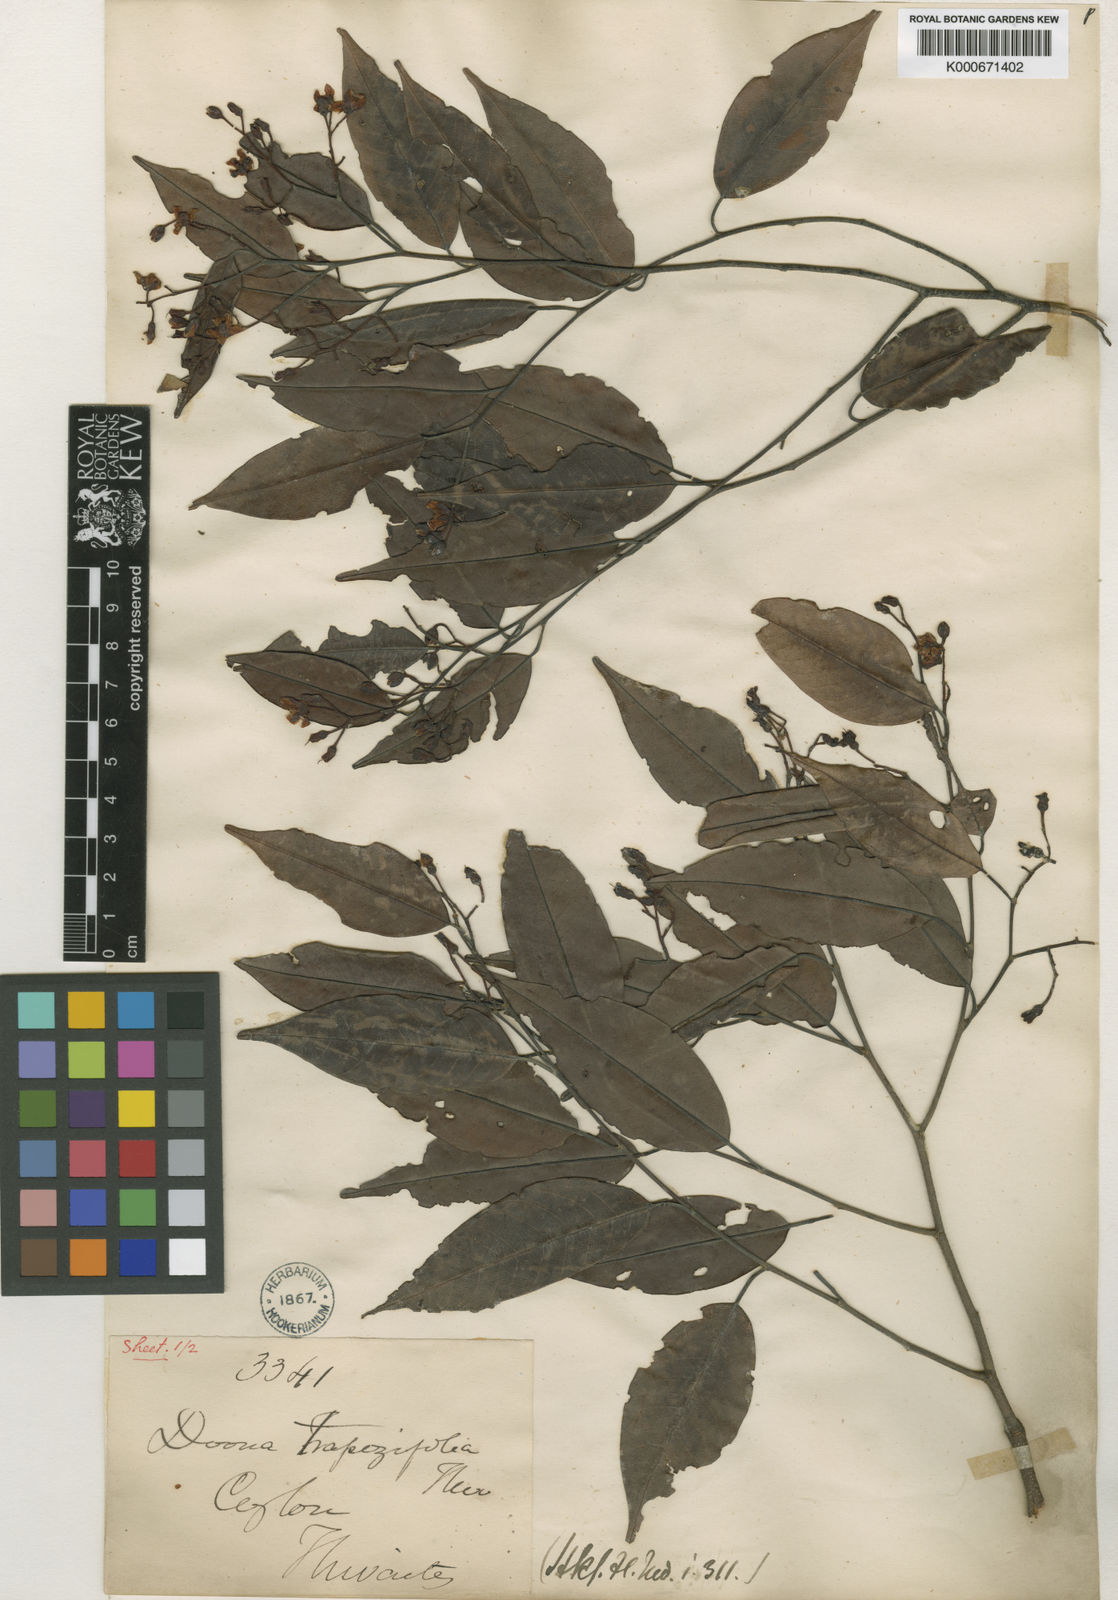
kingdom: Plantae
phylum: Tracheophyta
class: Magnoliopsida
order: Malvales
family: Dipterocarpaceae
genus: Doona
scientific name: Doona trapezifolia
